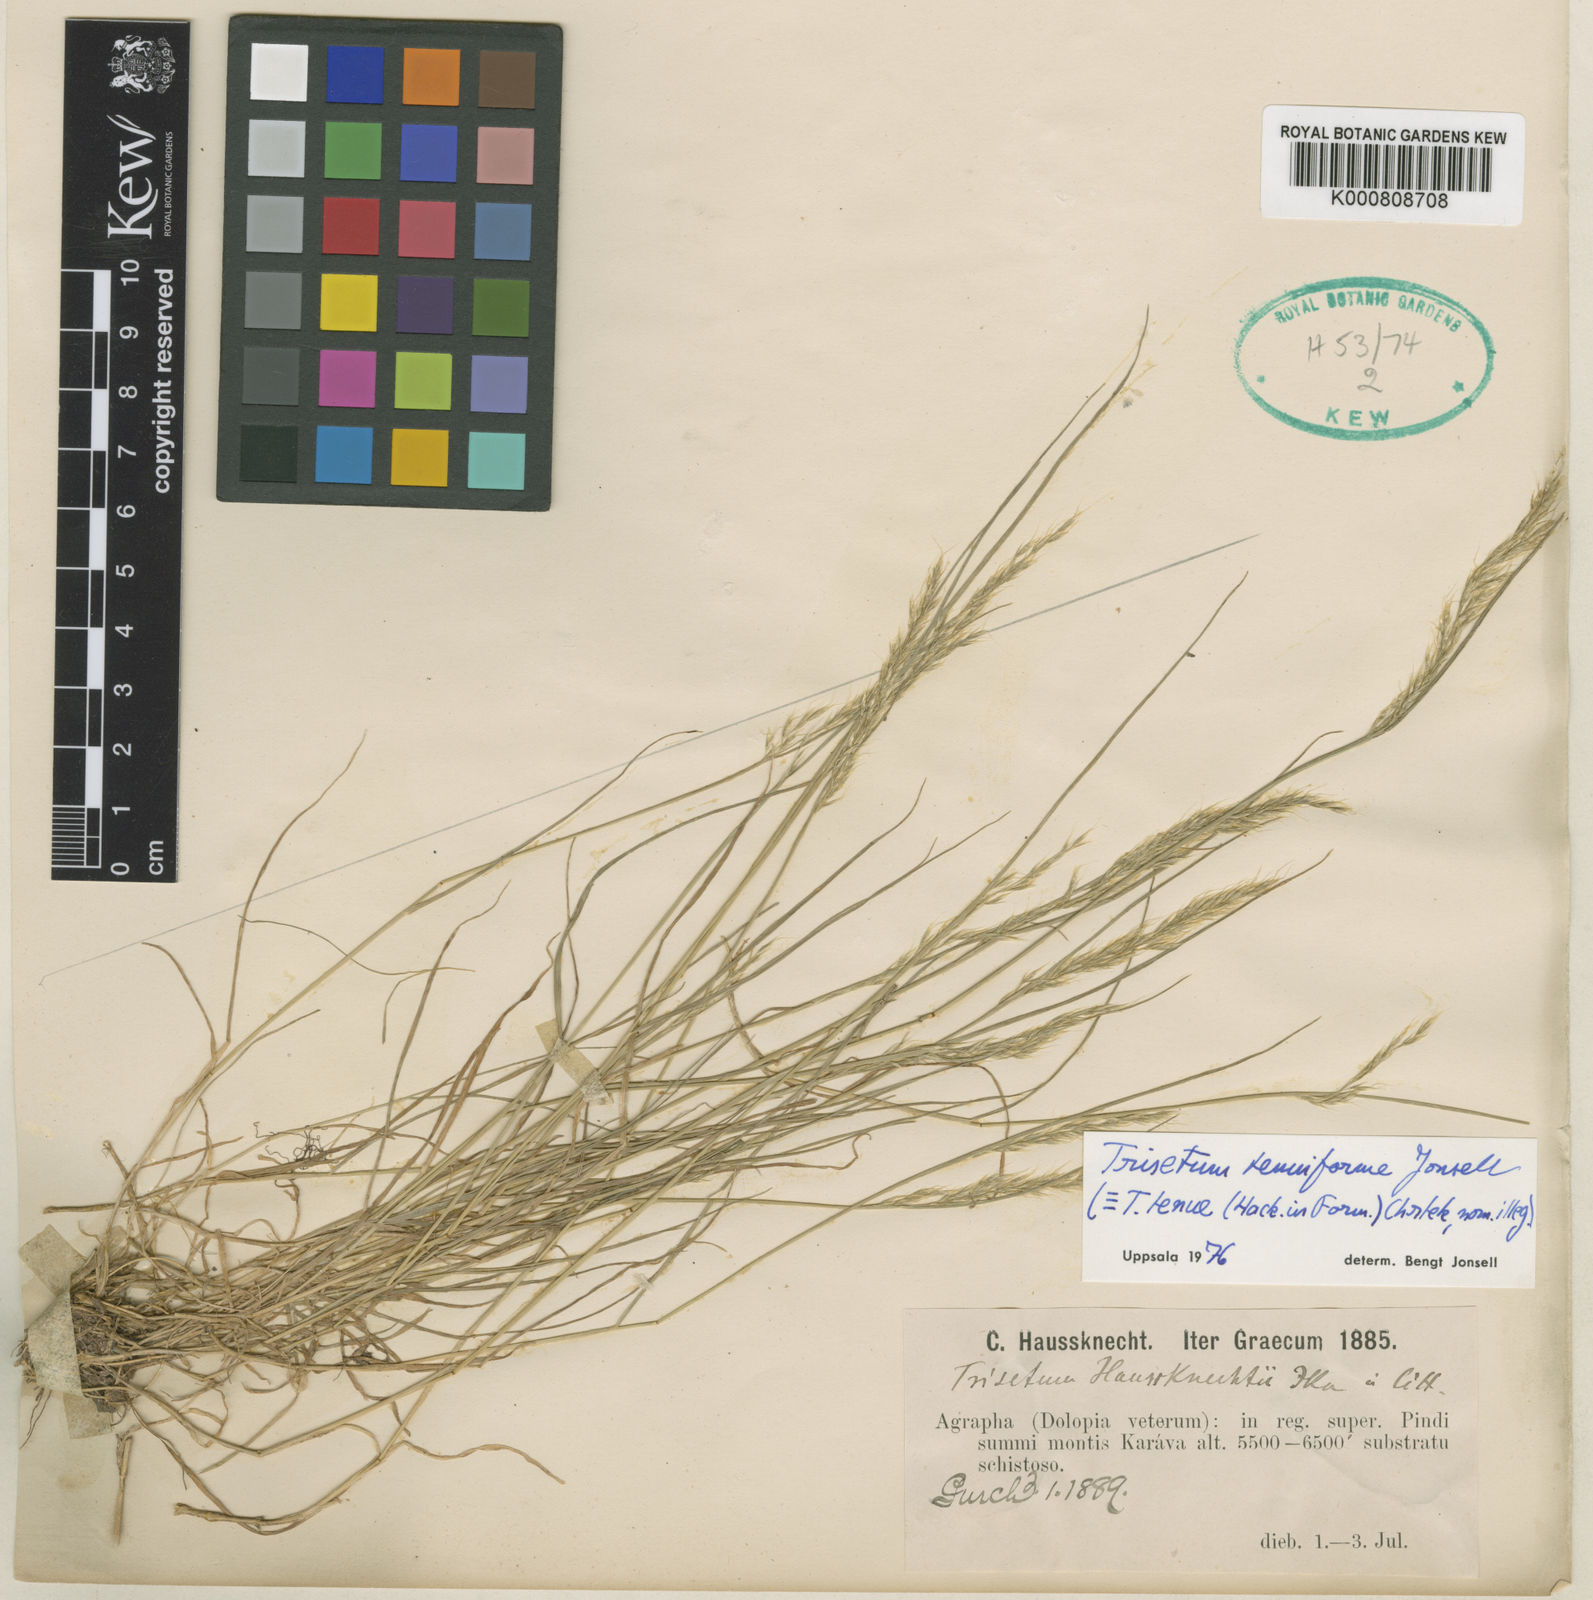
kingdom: Plantae
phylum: Tracheophyta
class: Liliopsida
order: Poales
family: Poaceae
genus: Trisetum
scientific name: Trisetum flavescens
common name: Yellow oat-grass
